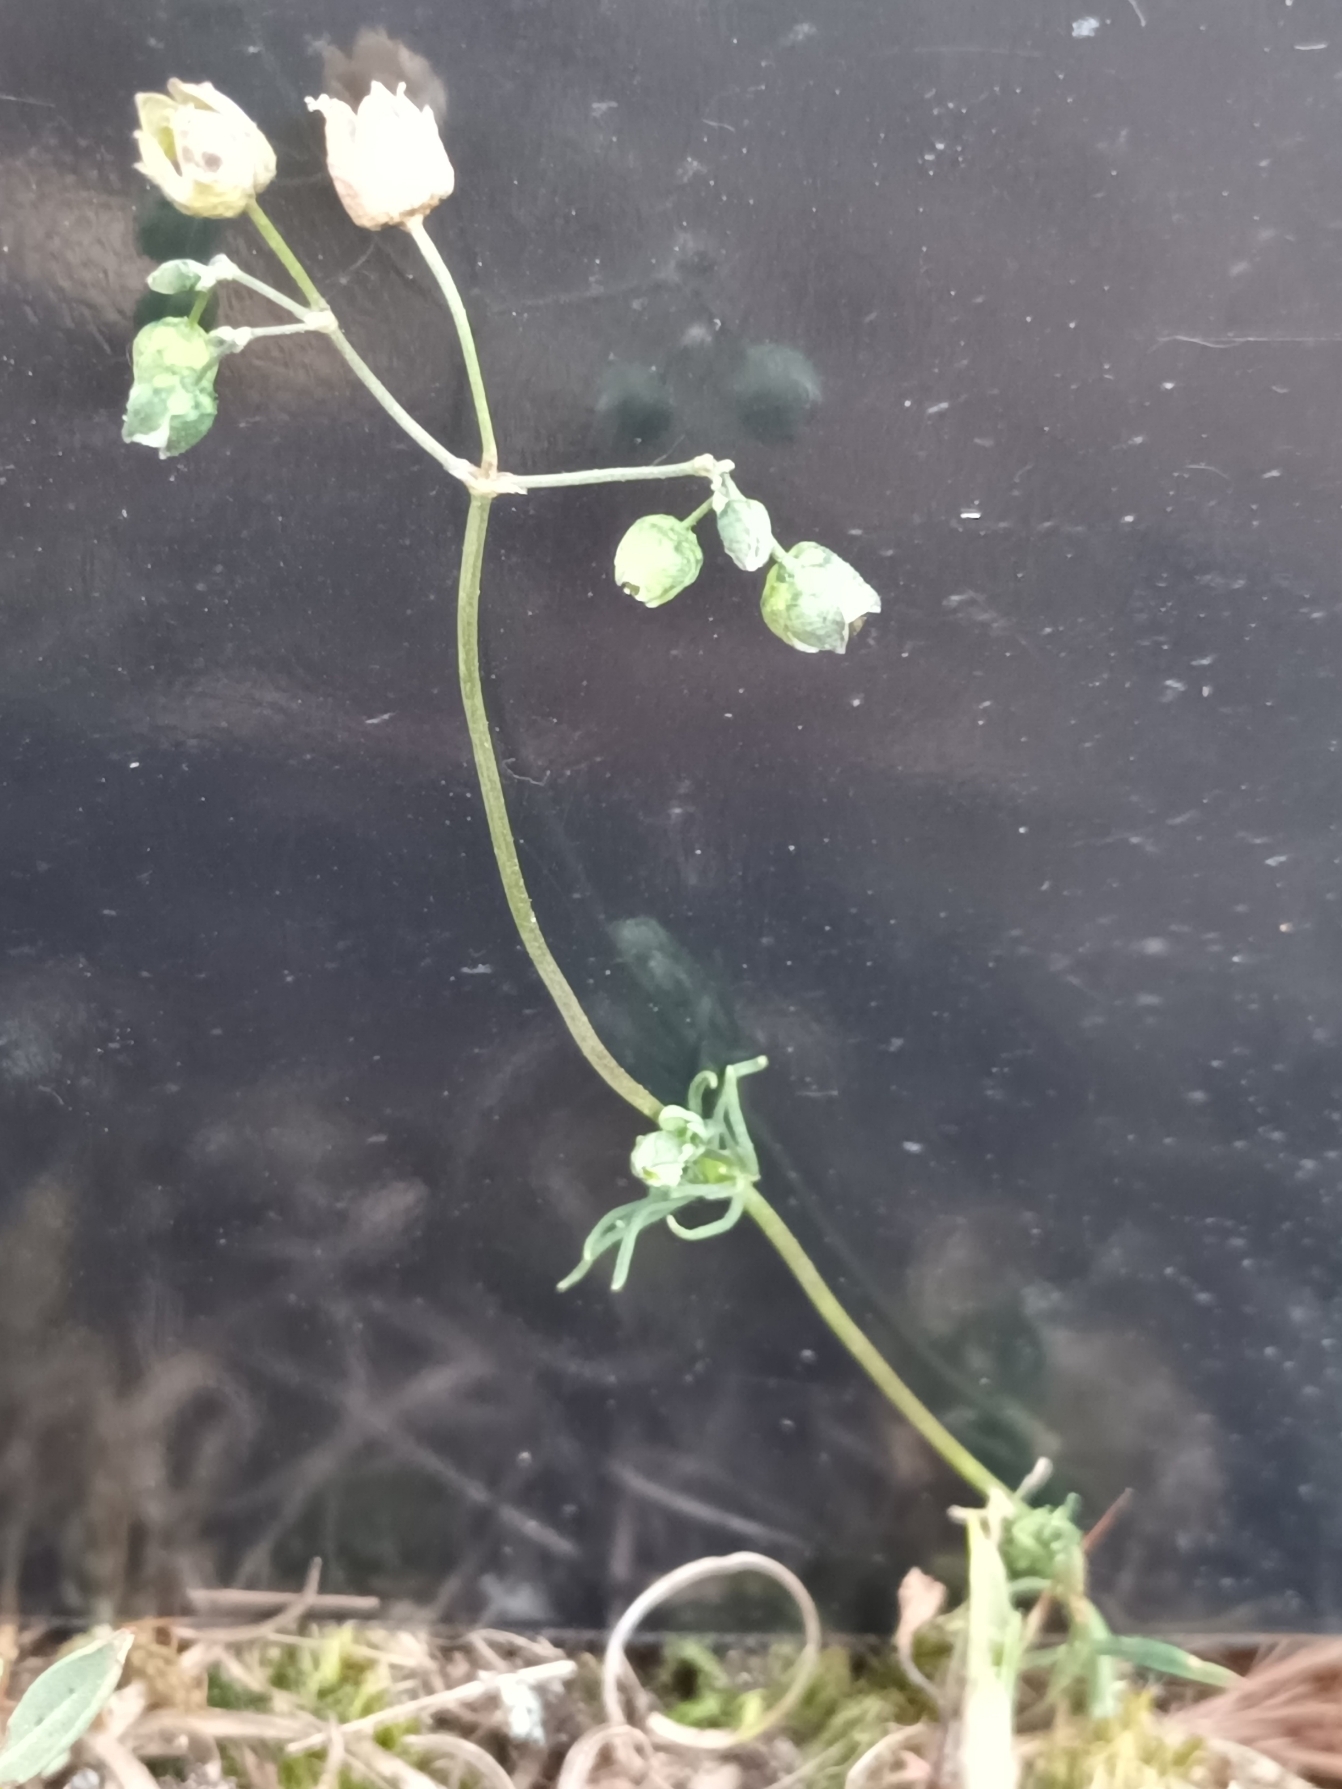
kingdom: Plantae
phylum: Tracheophyta
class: Magnoliopsida
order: Caryophyllales
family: Caryophyllaceae
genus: Spergula
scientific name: Spergula morisonii
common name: Vår-spergel
